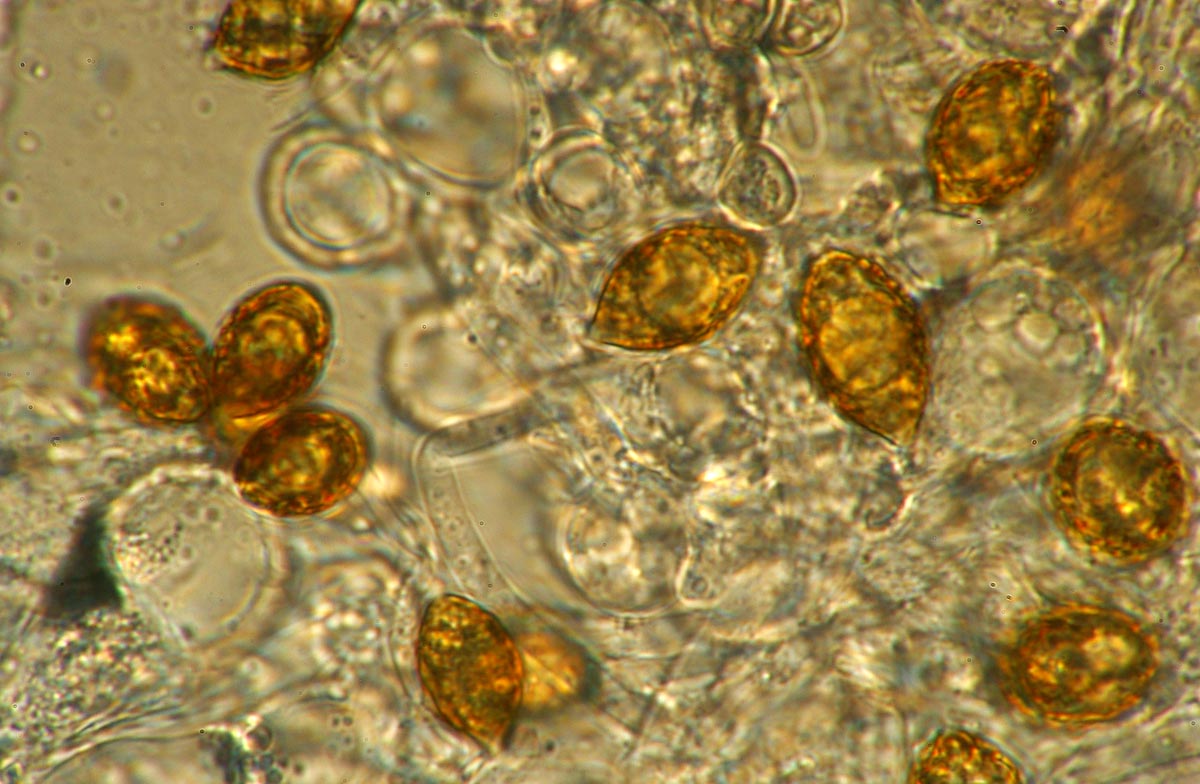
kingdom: Fungi
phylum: Basidiomycota
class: Agaricomycetes
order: Agaricales
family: Cortinariaceae
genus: Protoglossum
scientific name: Protoglossum niveum
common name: hvid knoldtrøffel
